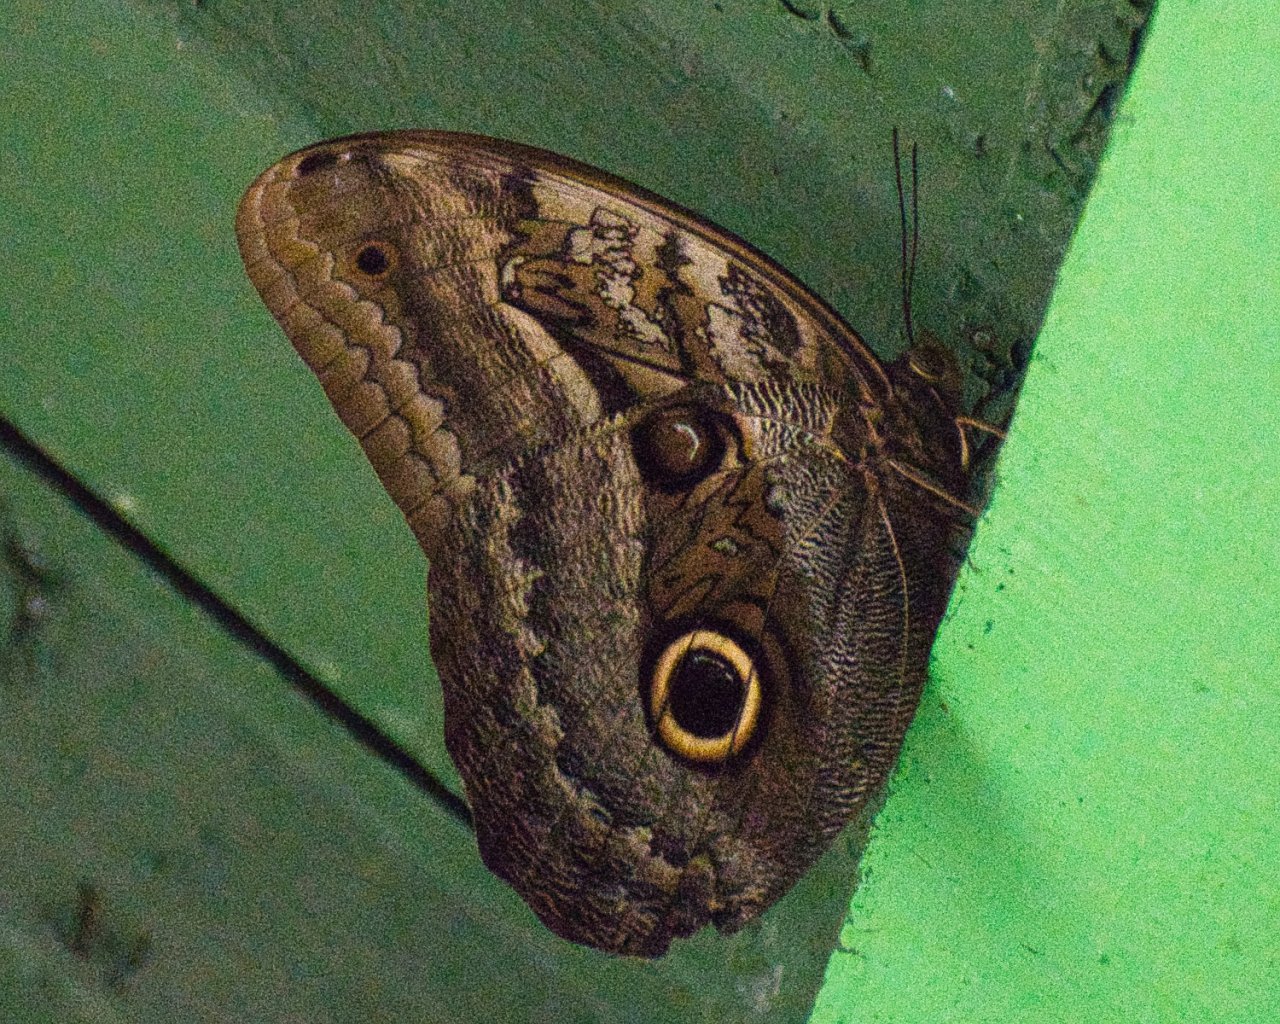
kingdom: Animalia
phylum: Arthropoda
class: Insecta
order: Lepidoptera
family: Nymphalidae
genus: Caligo
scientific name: Caligo illioneus
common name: Dusky Owl-Butterfly
